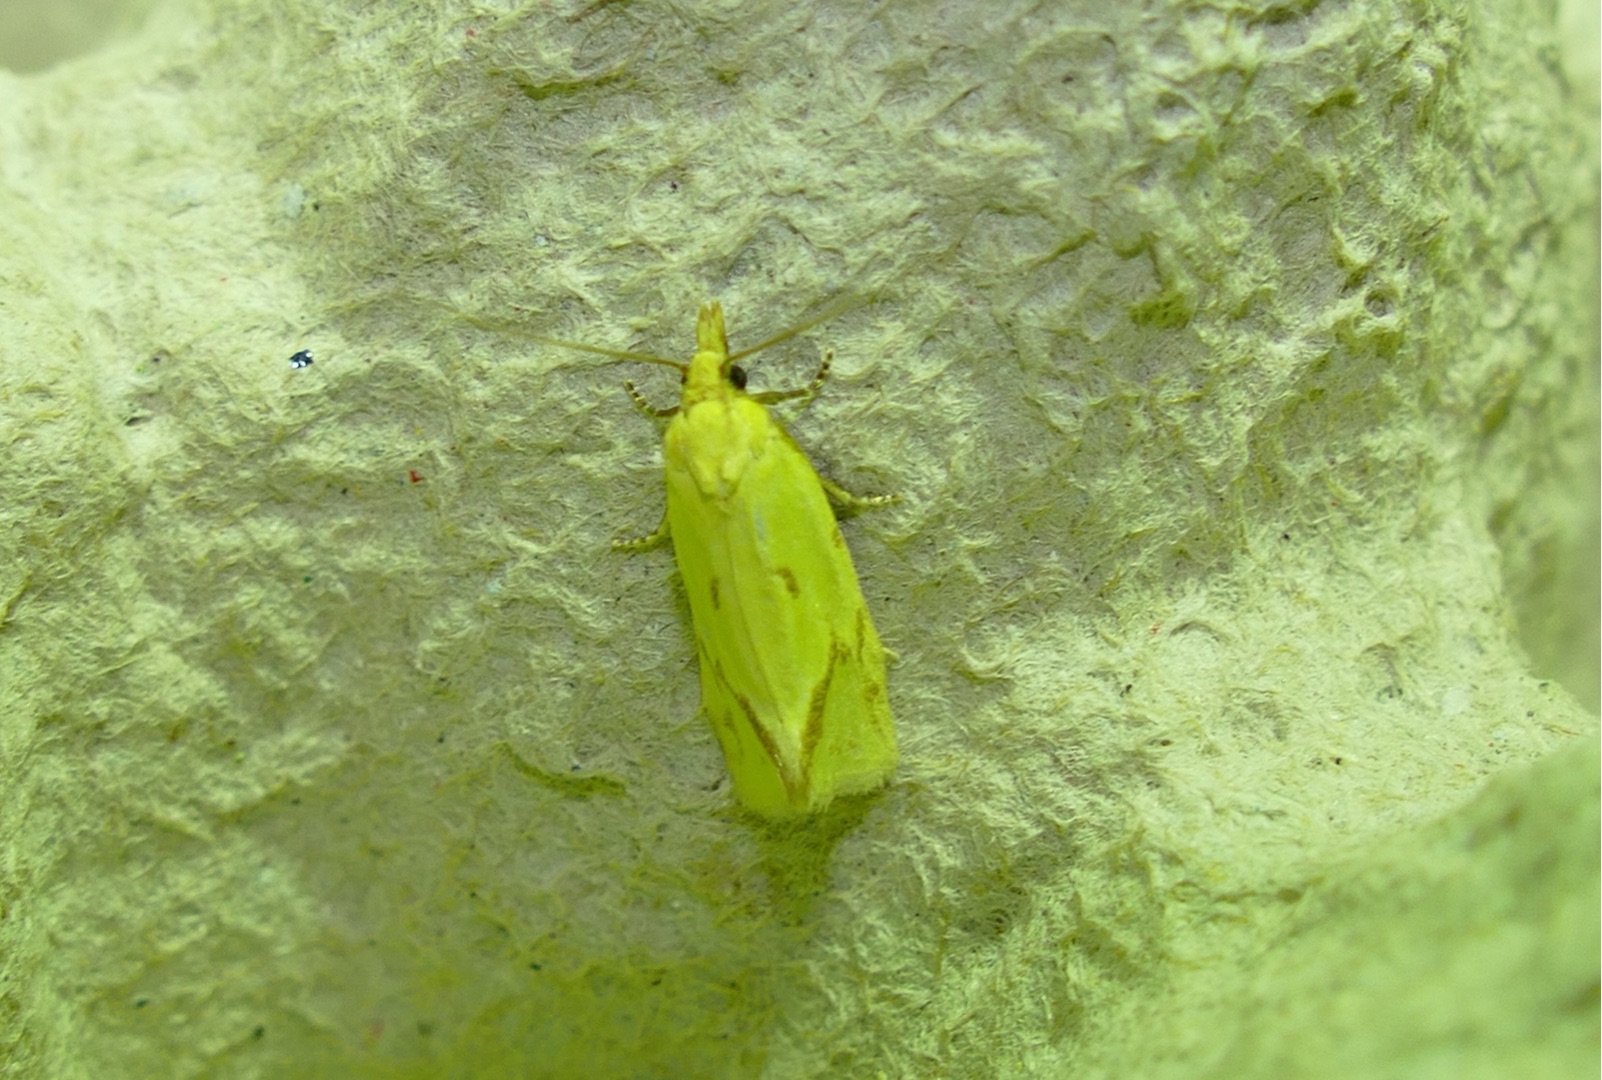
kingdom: Animalia
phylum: Arthropoda
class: Insecta
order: Lepidoptera
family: Tortricidae
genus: Agapeta
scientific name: Agapeta hamana
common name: Tidselgulvikler
